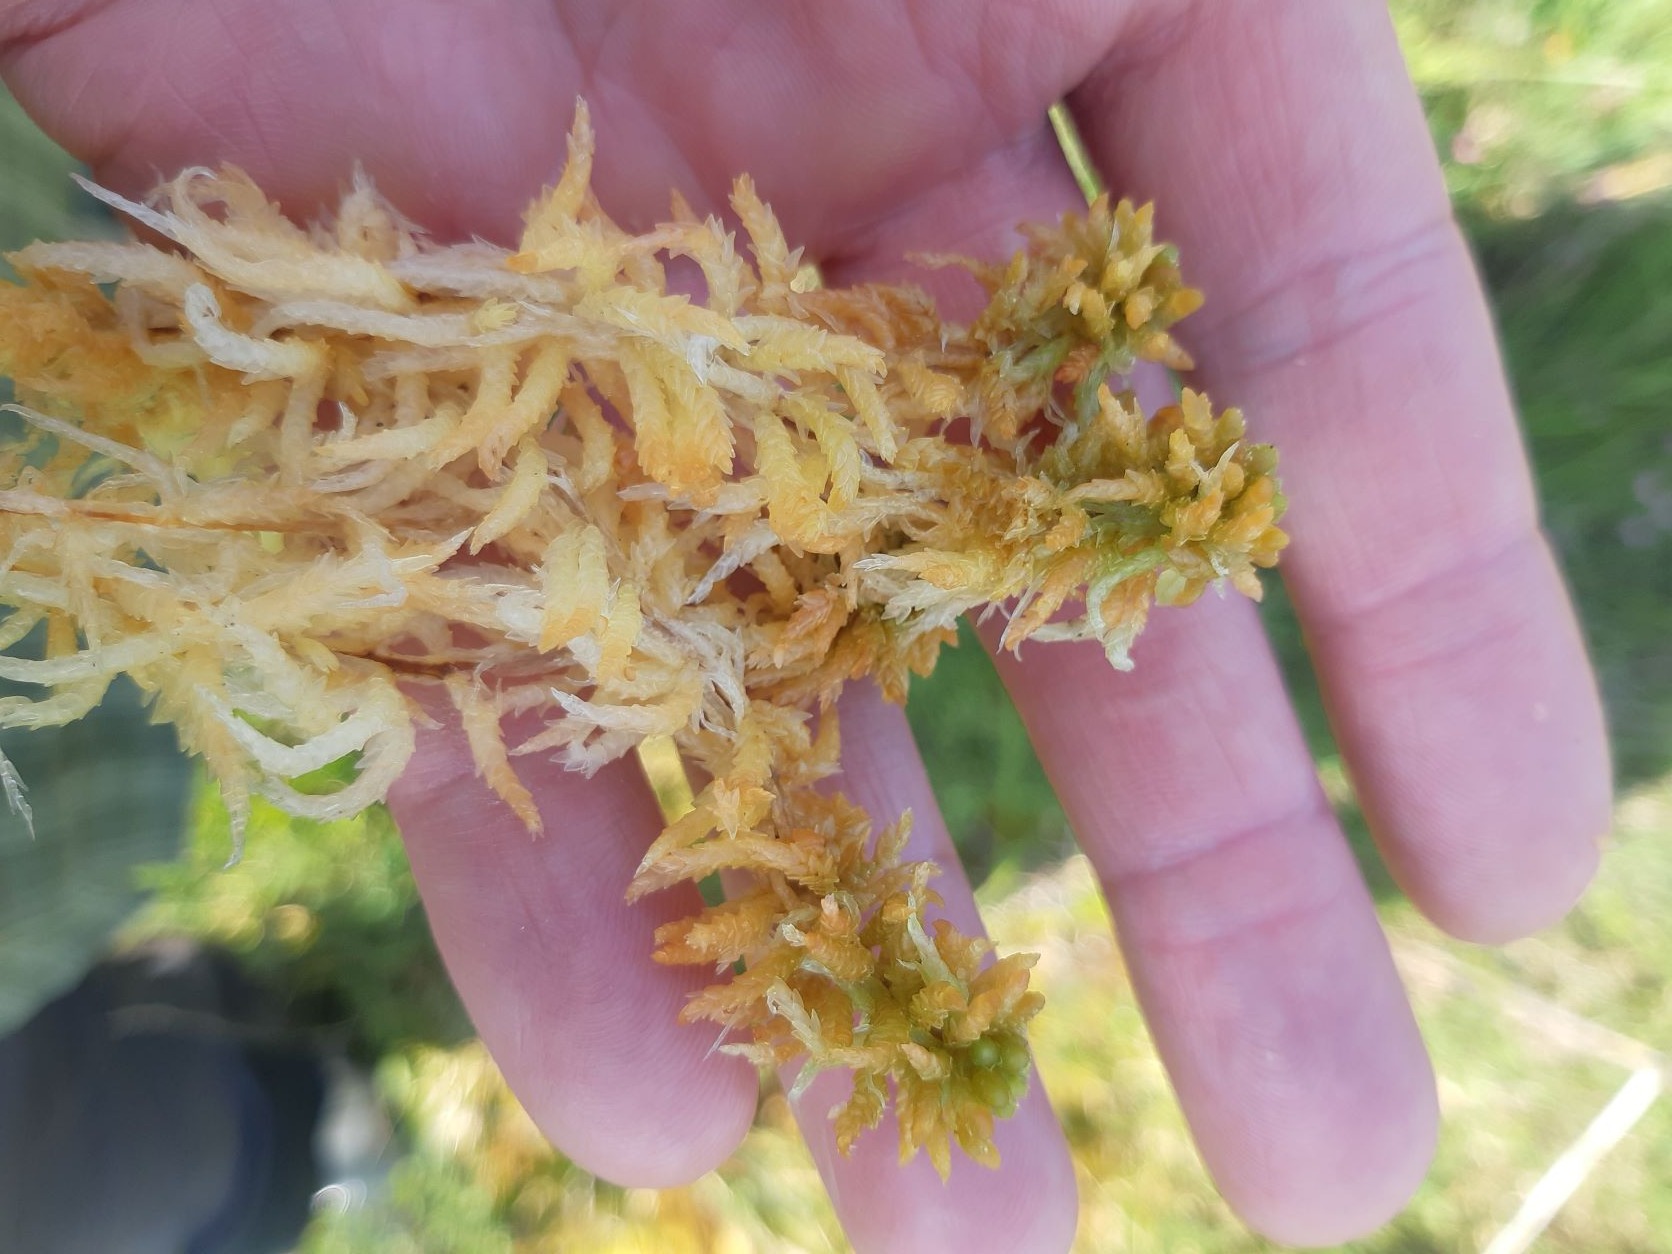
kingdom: Plantae
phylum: Bryophyta
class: Sphagnopsida
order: Sphagnales
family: Sphagnaceae
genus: Sphagnum
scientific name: Sphagnum palustre
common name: Almindelig tørvemos
